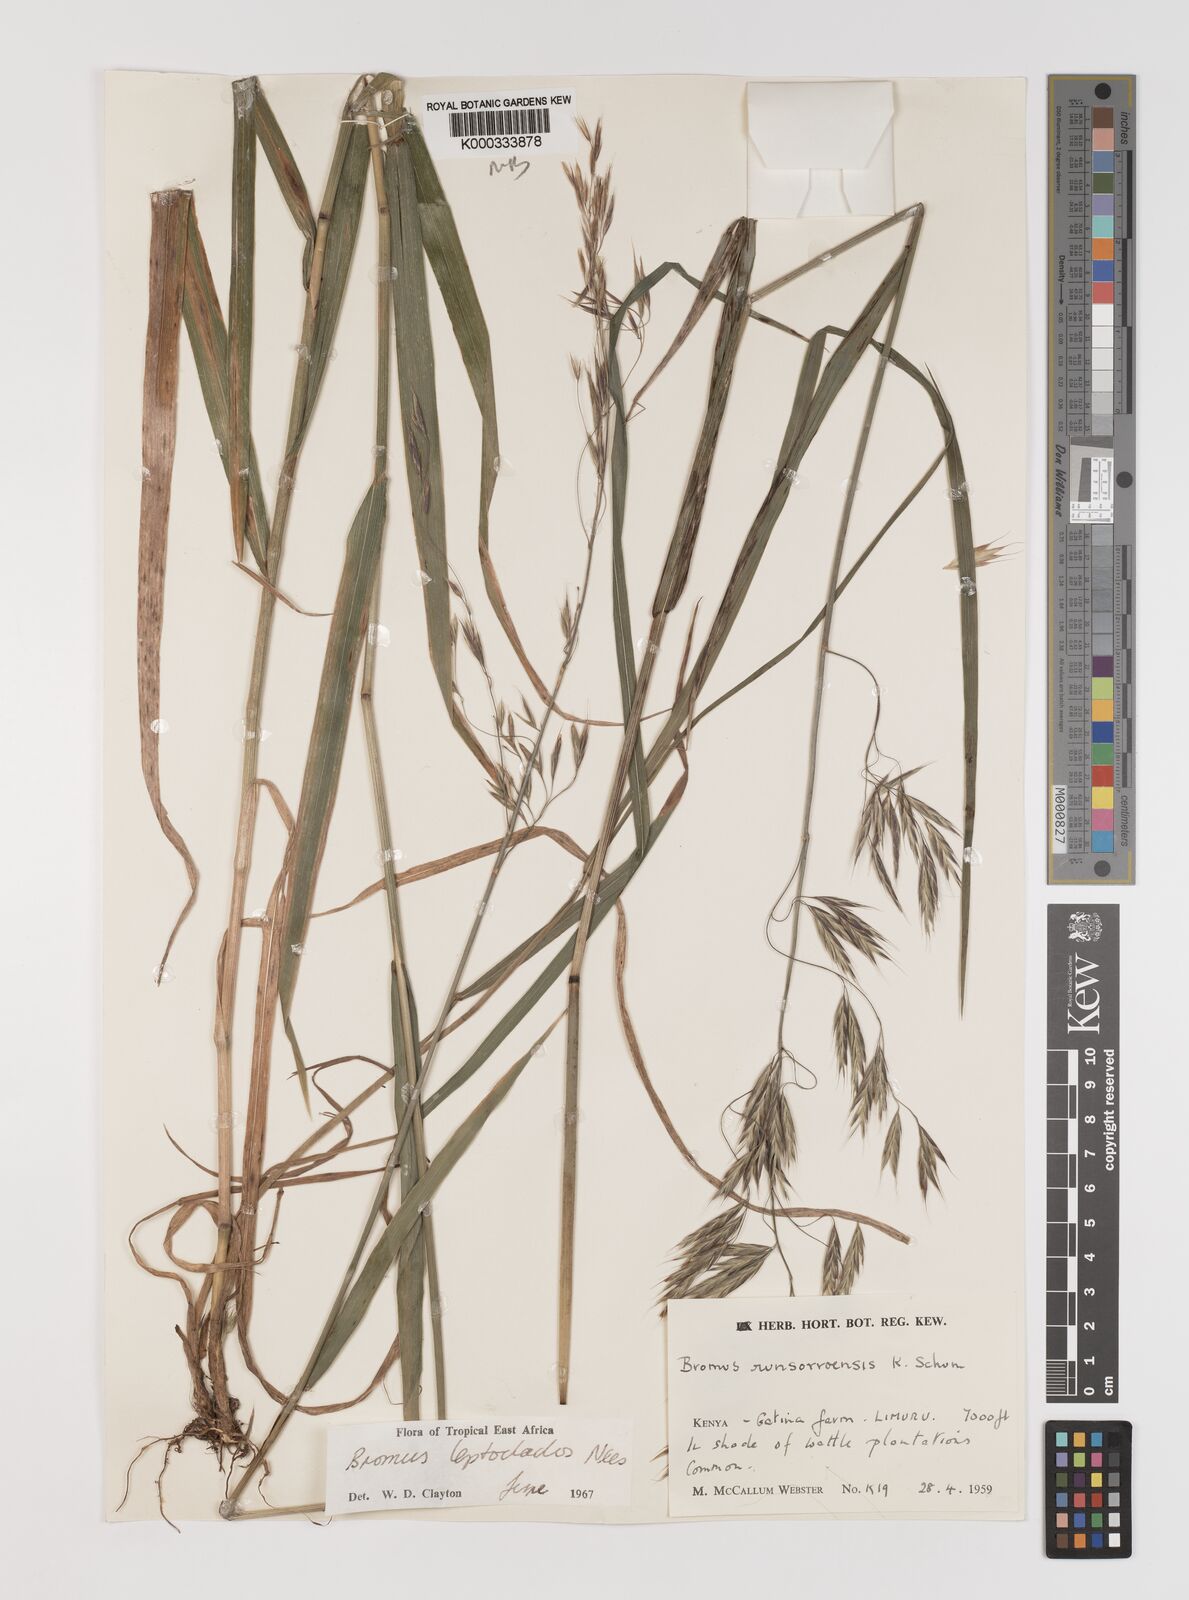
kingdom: Plantae
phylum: Tracheophyta
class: Liliopsida
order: Poales
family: Poaceae
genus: Bromus
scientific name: Bromus leptoclados
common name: Mountain bromegrass
